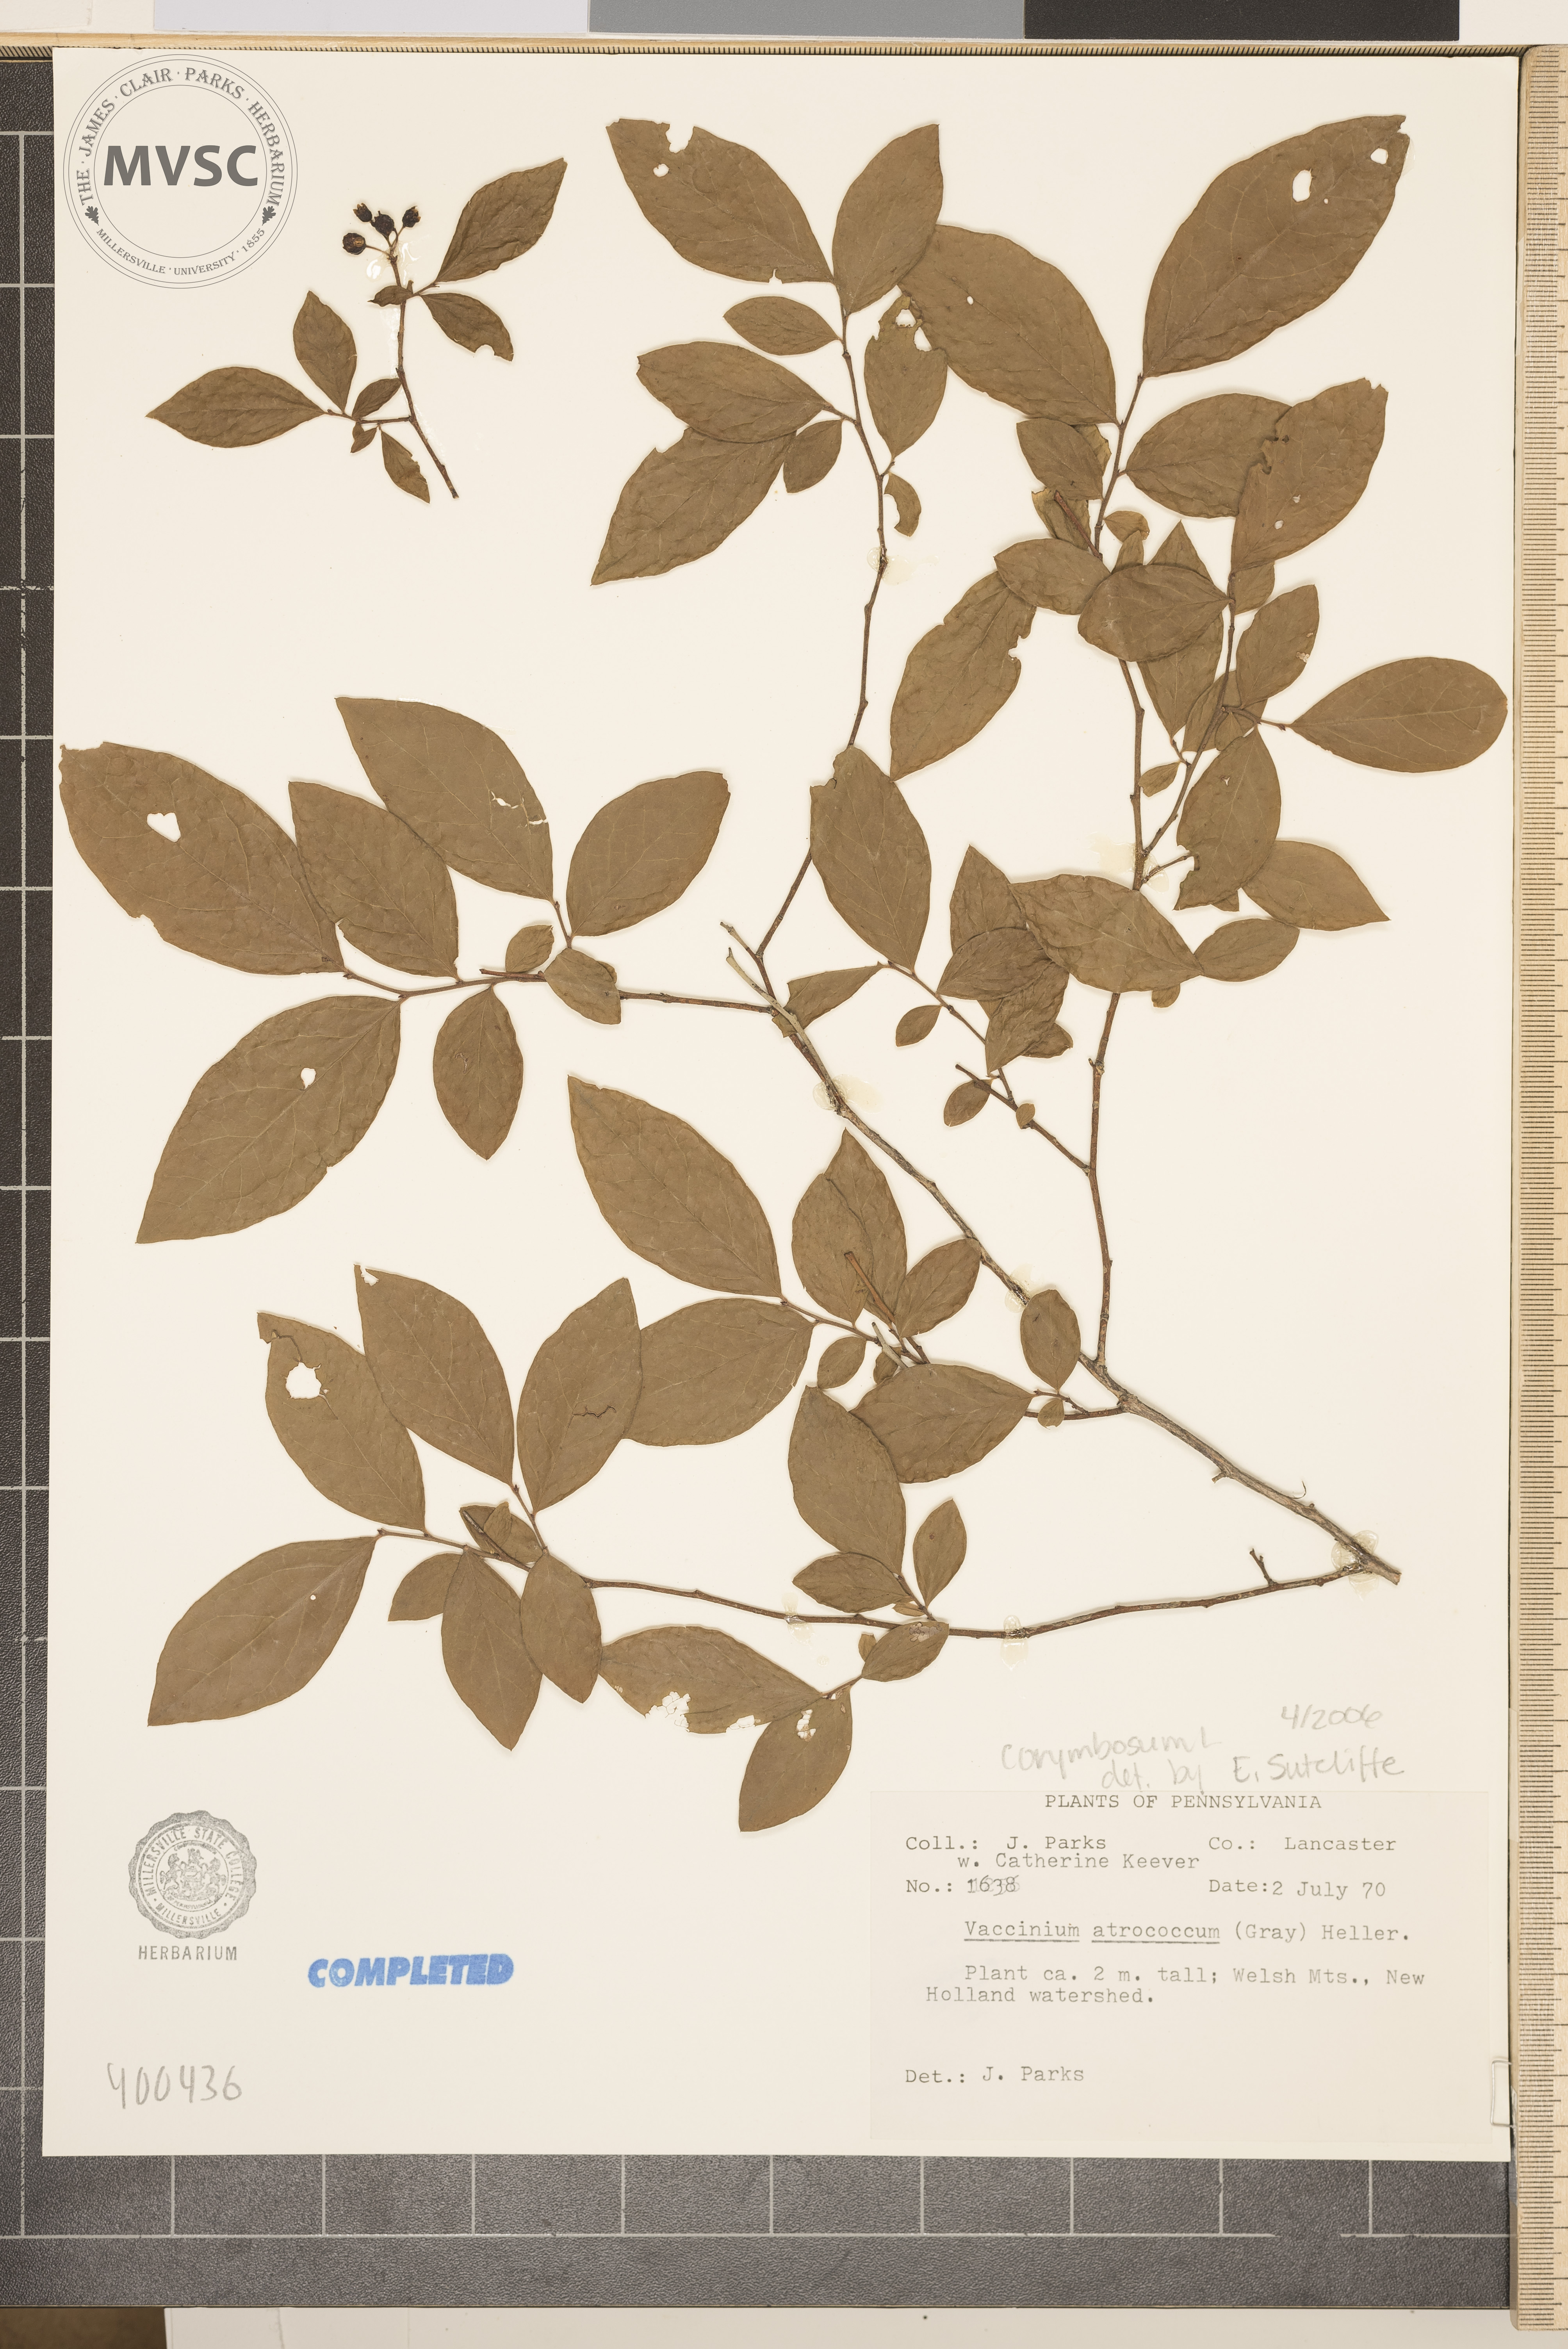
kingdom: Plantae
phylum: Tracheophyta
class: Magnoliopsida
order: Ericales
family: Ericaceae
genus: Vaccinium
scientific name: Vaccinium corymbosum
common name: blueberry
